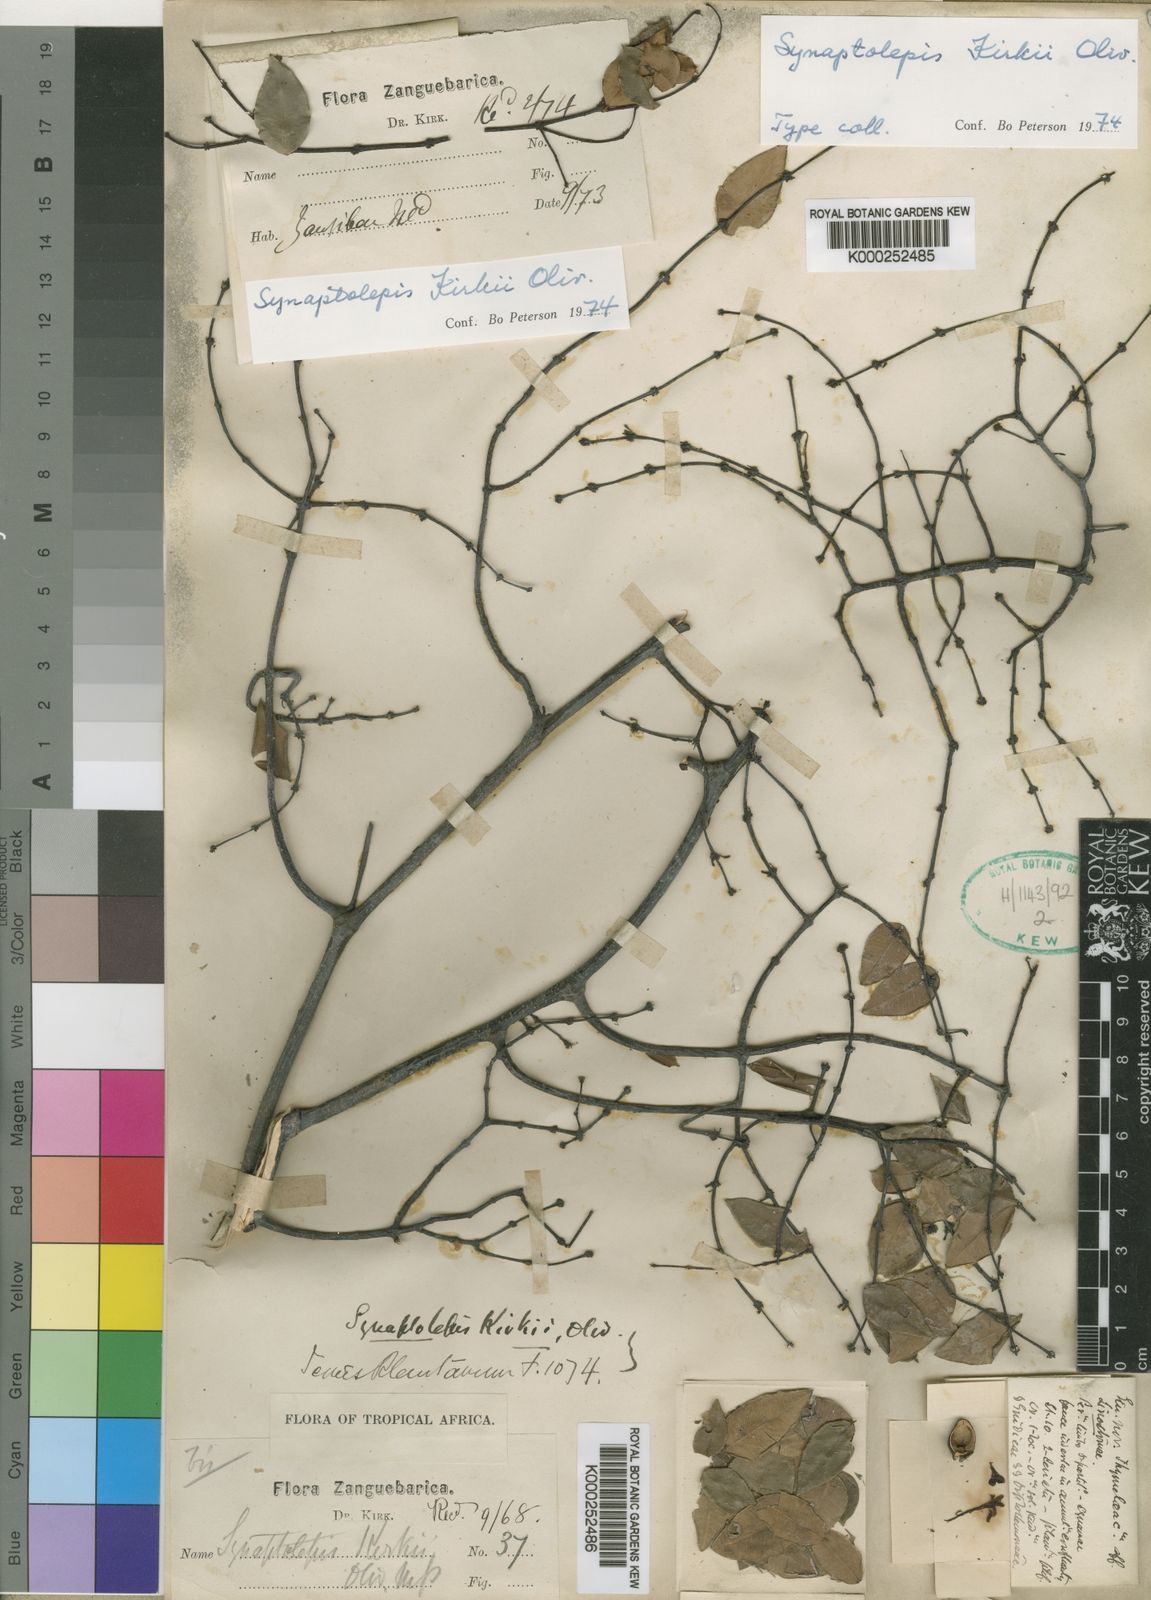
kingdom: Plantae
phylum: Tracheophyta
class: Magnoliopsida
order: Malvales
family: Thymelaeaceae
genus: Synaptolepis
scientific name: Synaptolepis kirkii
